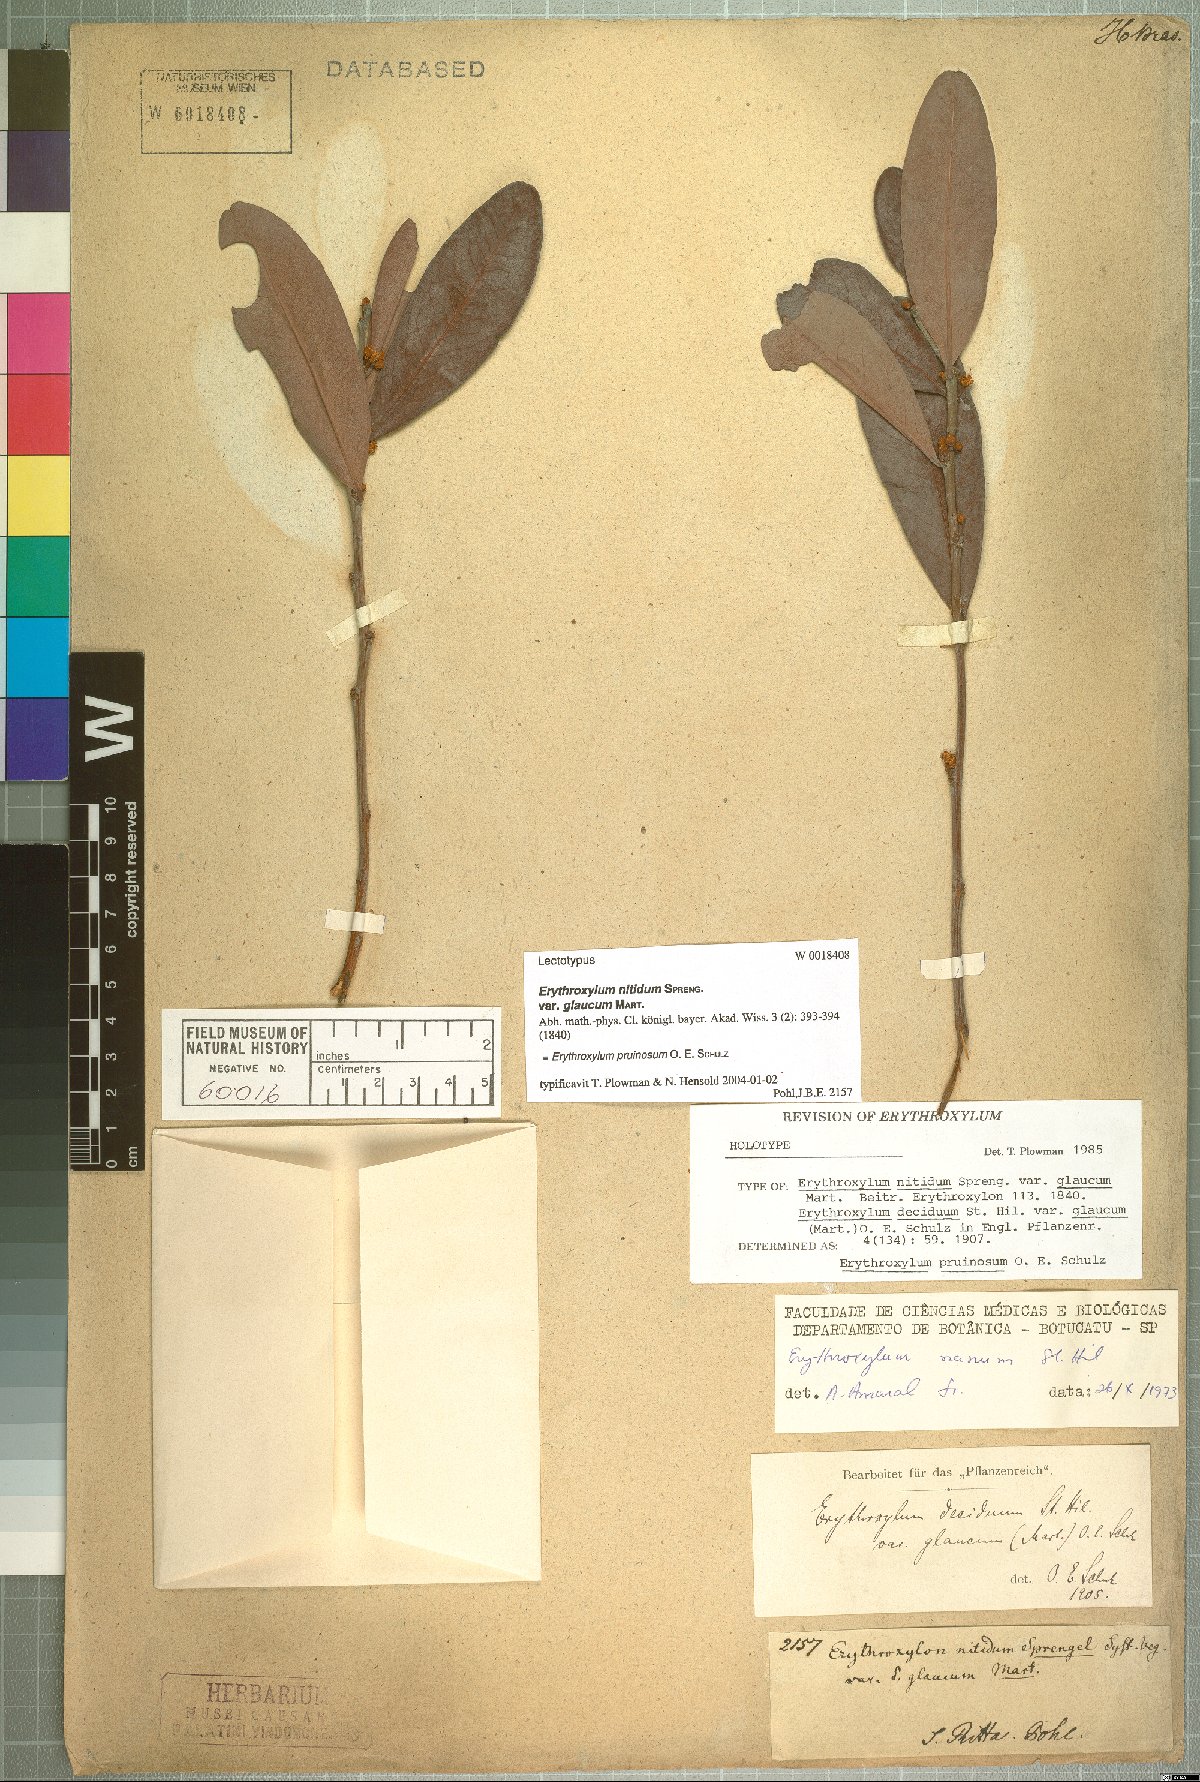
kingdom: Plantae
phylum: Tracheophyta
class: Magnoliopsida
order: Malpighiales
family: Erythroxylaceae
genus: Erythroxylum
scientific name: Erythroxylum pruinosum
